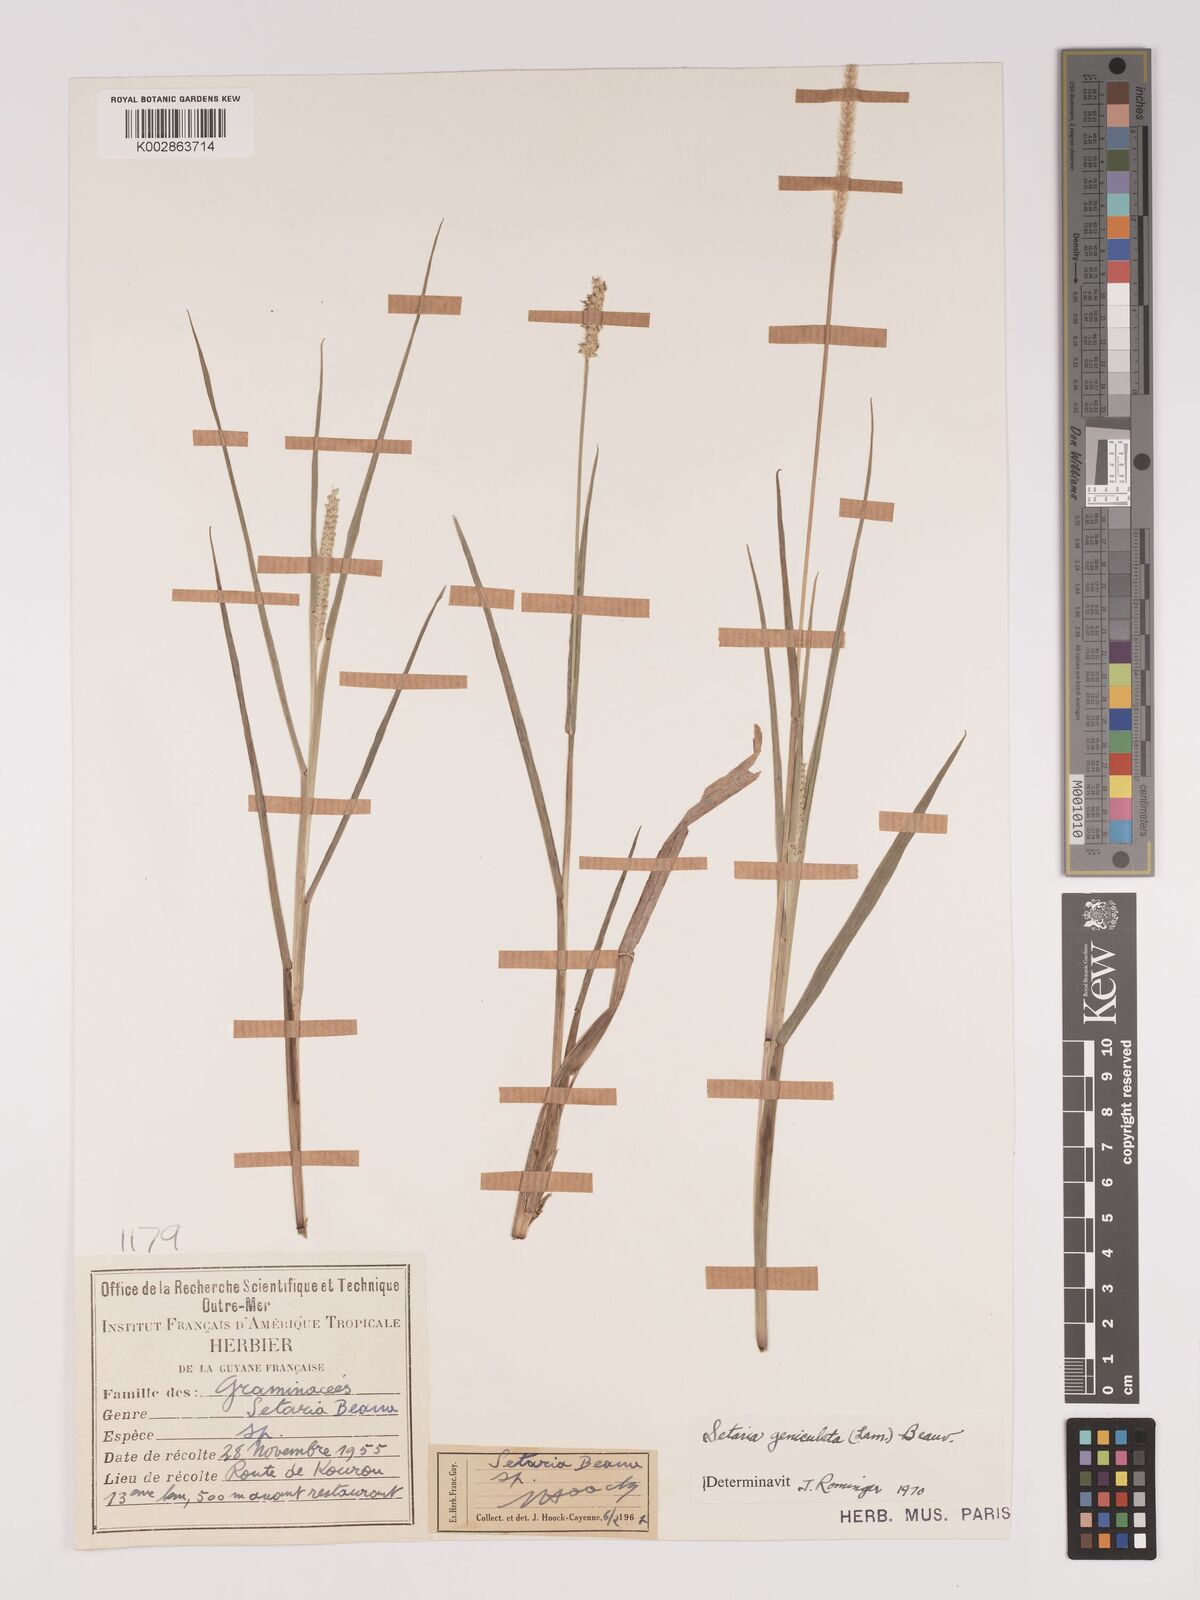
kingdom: Plantae
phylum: Tracheophyta
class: Liliopsida
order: Poales
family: Poaceae
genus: Setaria
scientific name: Setaria parviflora
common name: Knotroot bristle-grass
